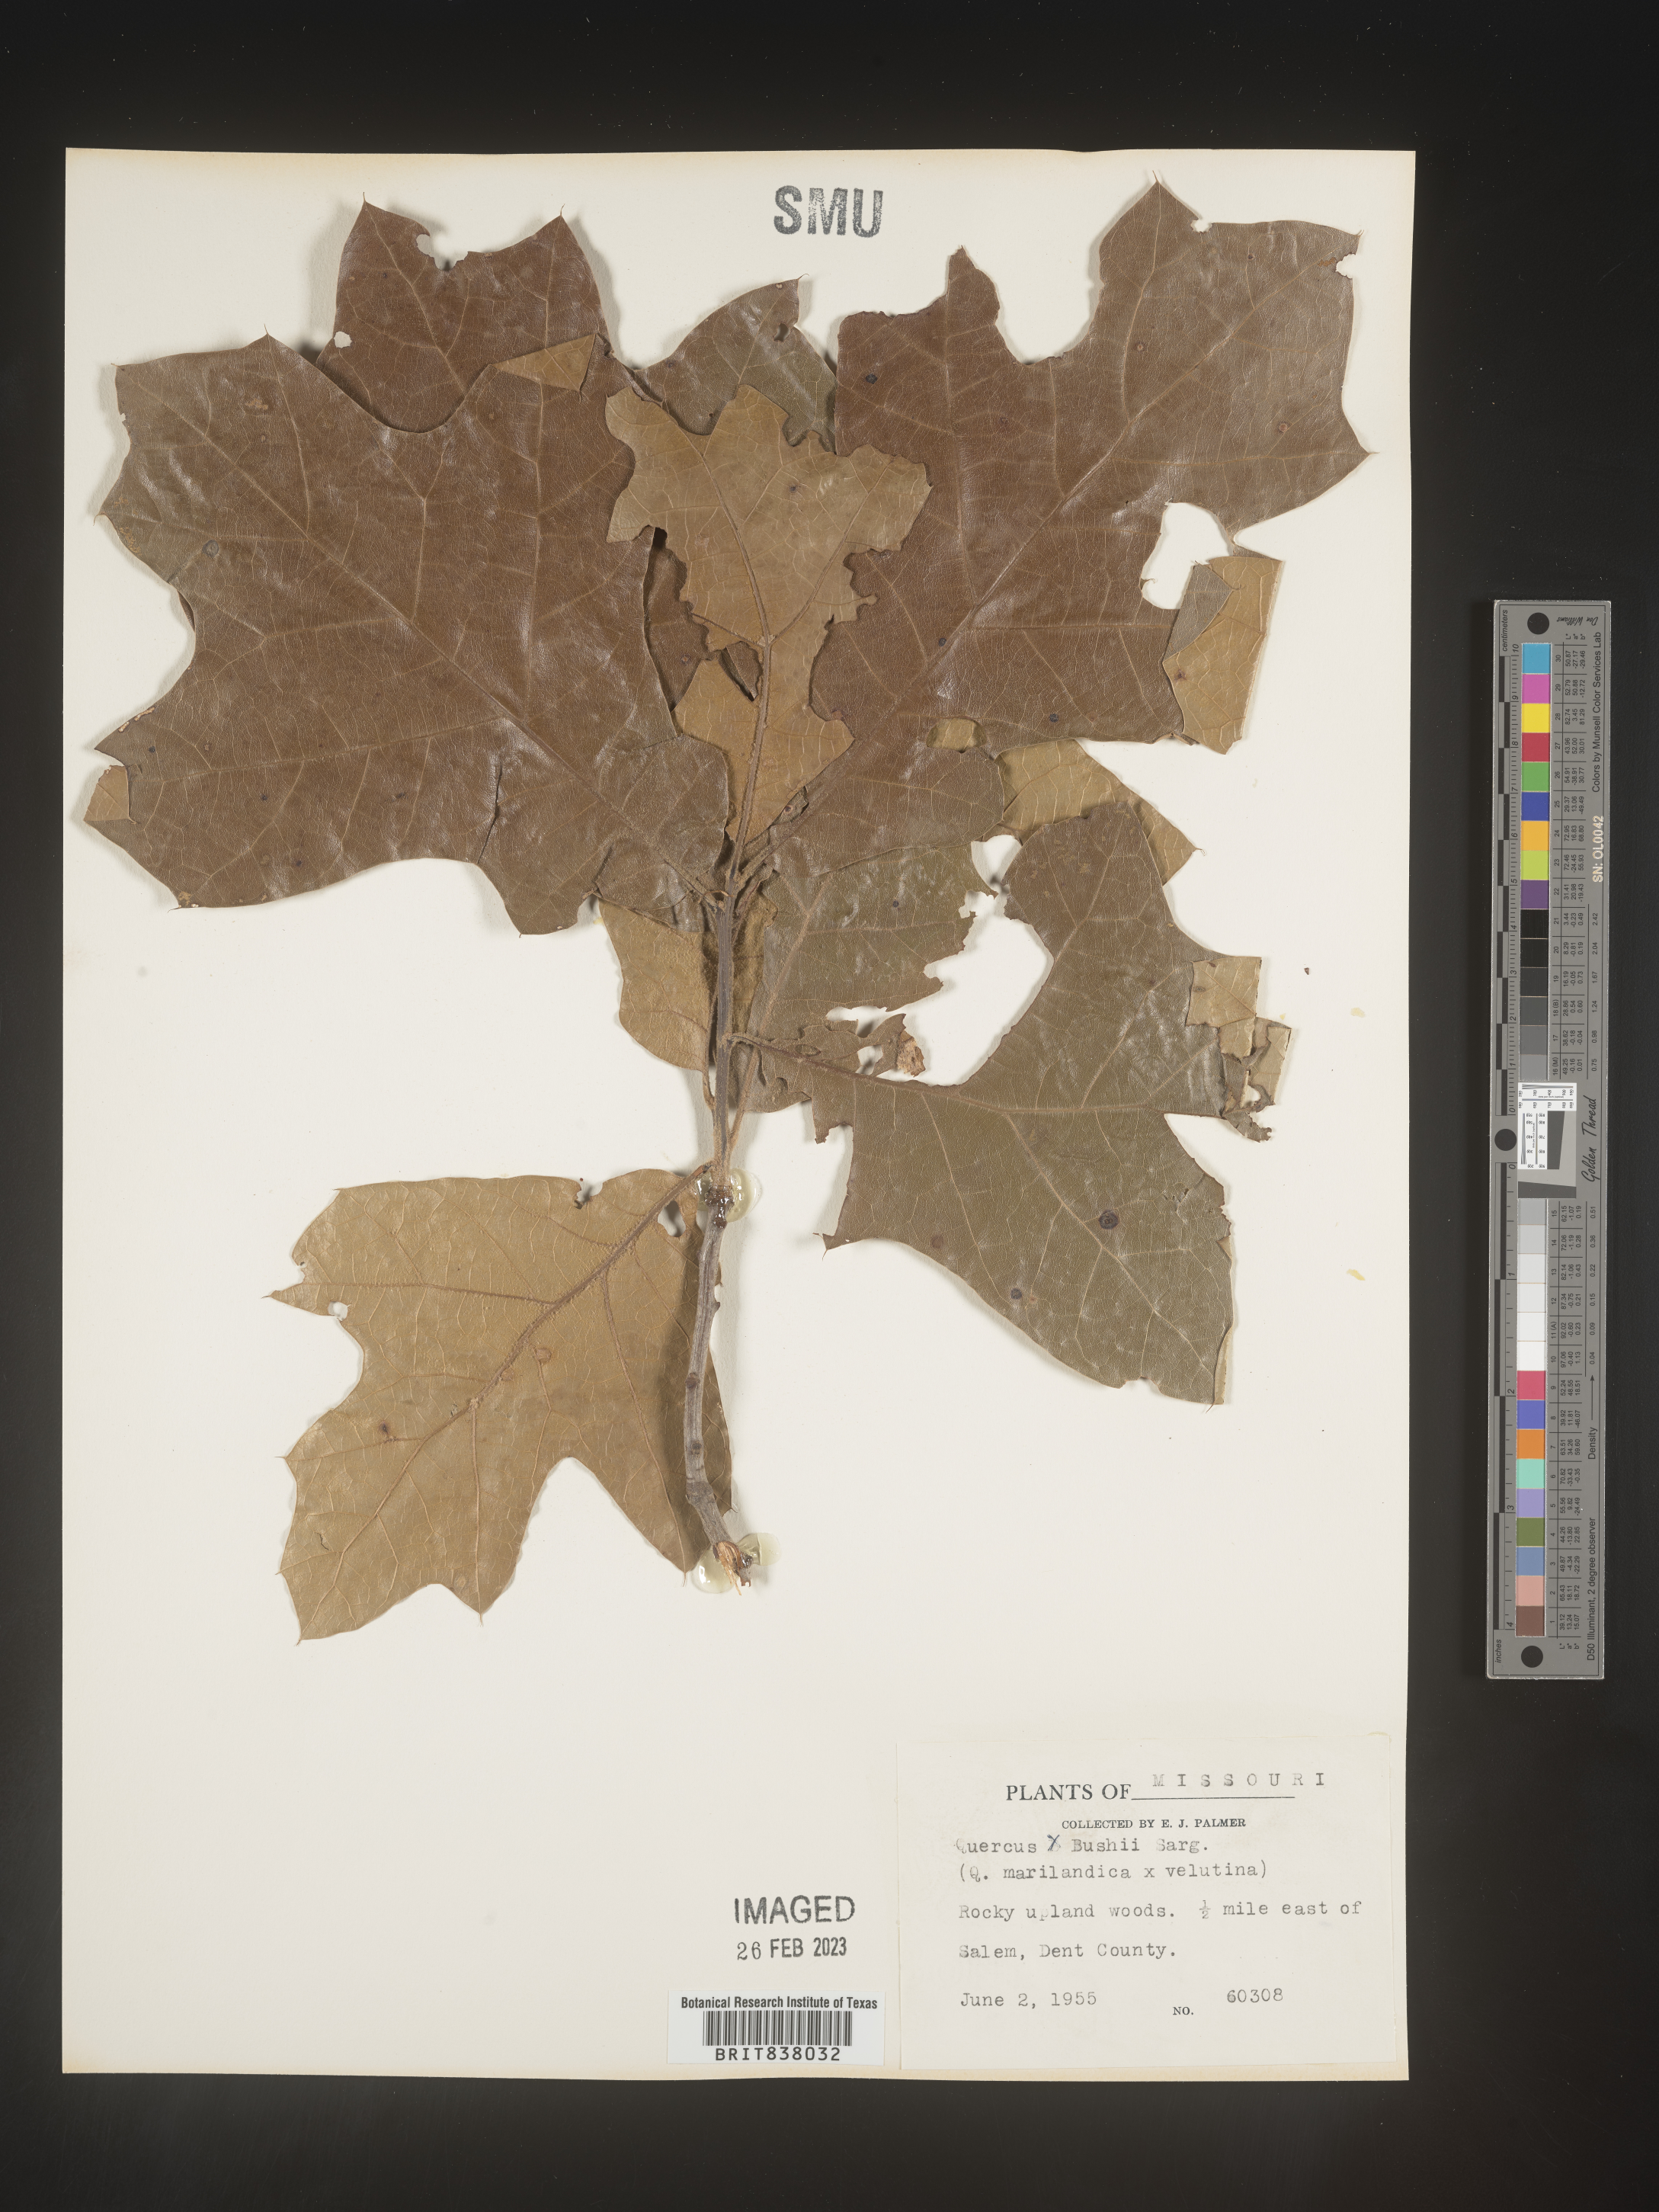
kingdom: Plantae
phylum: Tracheophyta
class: Magnoliopsida
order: Fagales
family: Fagaceae
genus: Quercus
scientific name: Quercus
